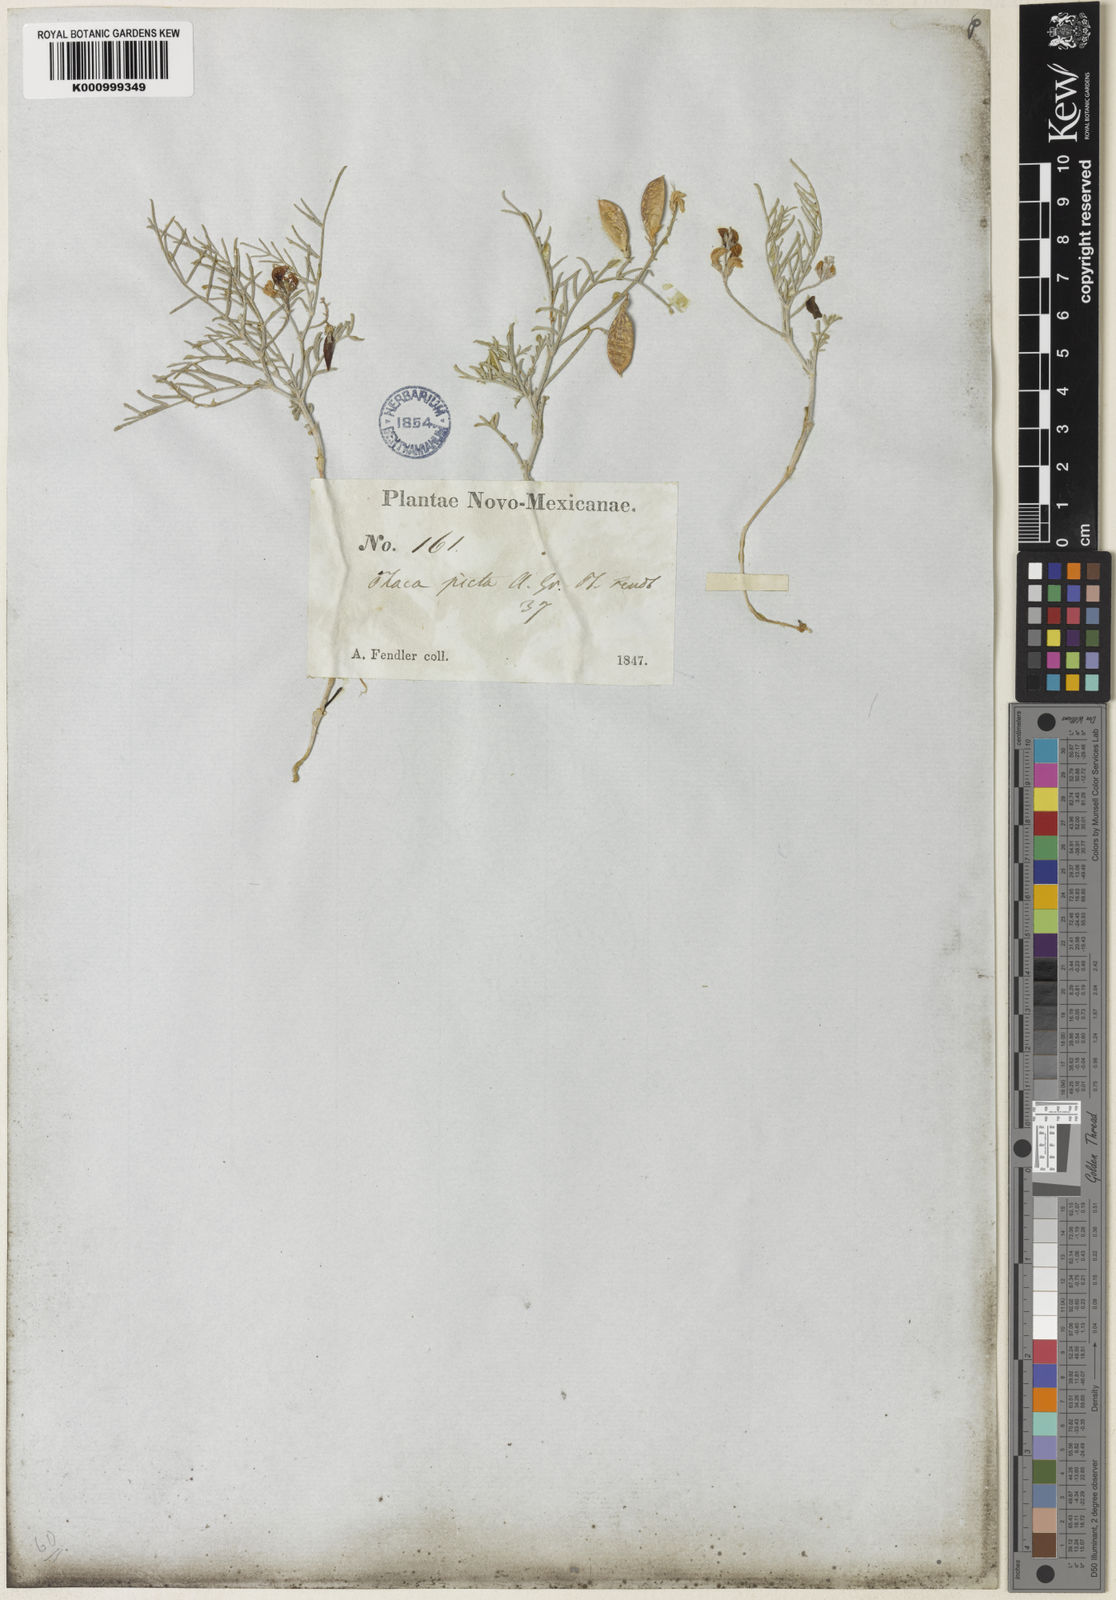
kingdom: Plantae
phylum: Tracheophyta
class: Magnoliopsida
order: Fabales
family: Fabaceae
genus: Astragalus
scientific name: Astragalus ceramicus
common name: Painted milk-vetch
